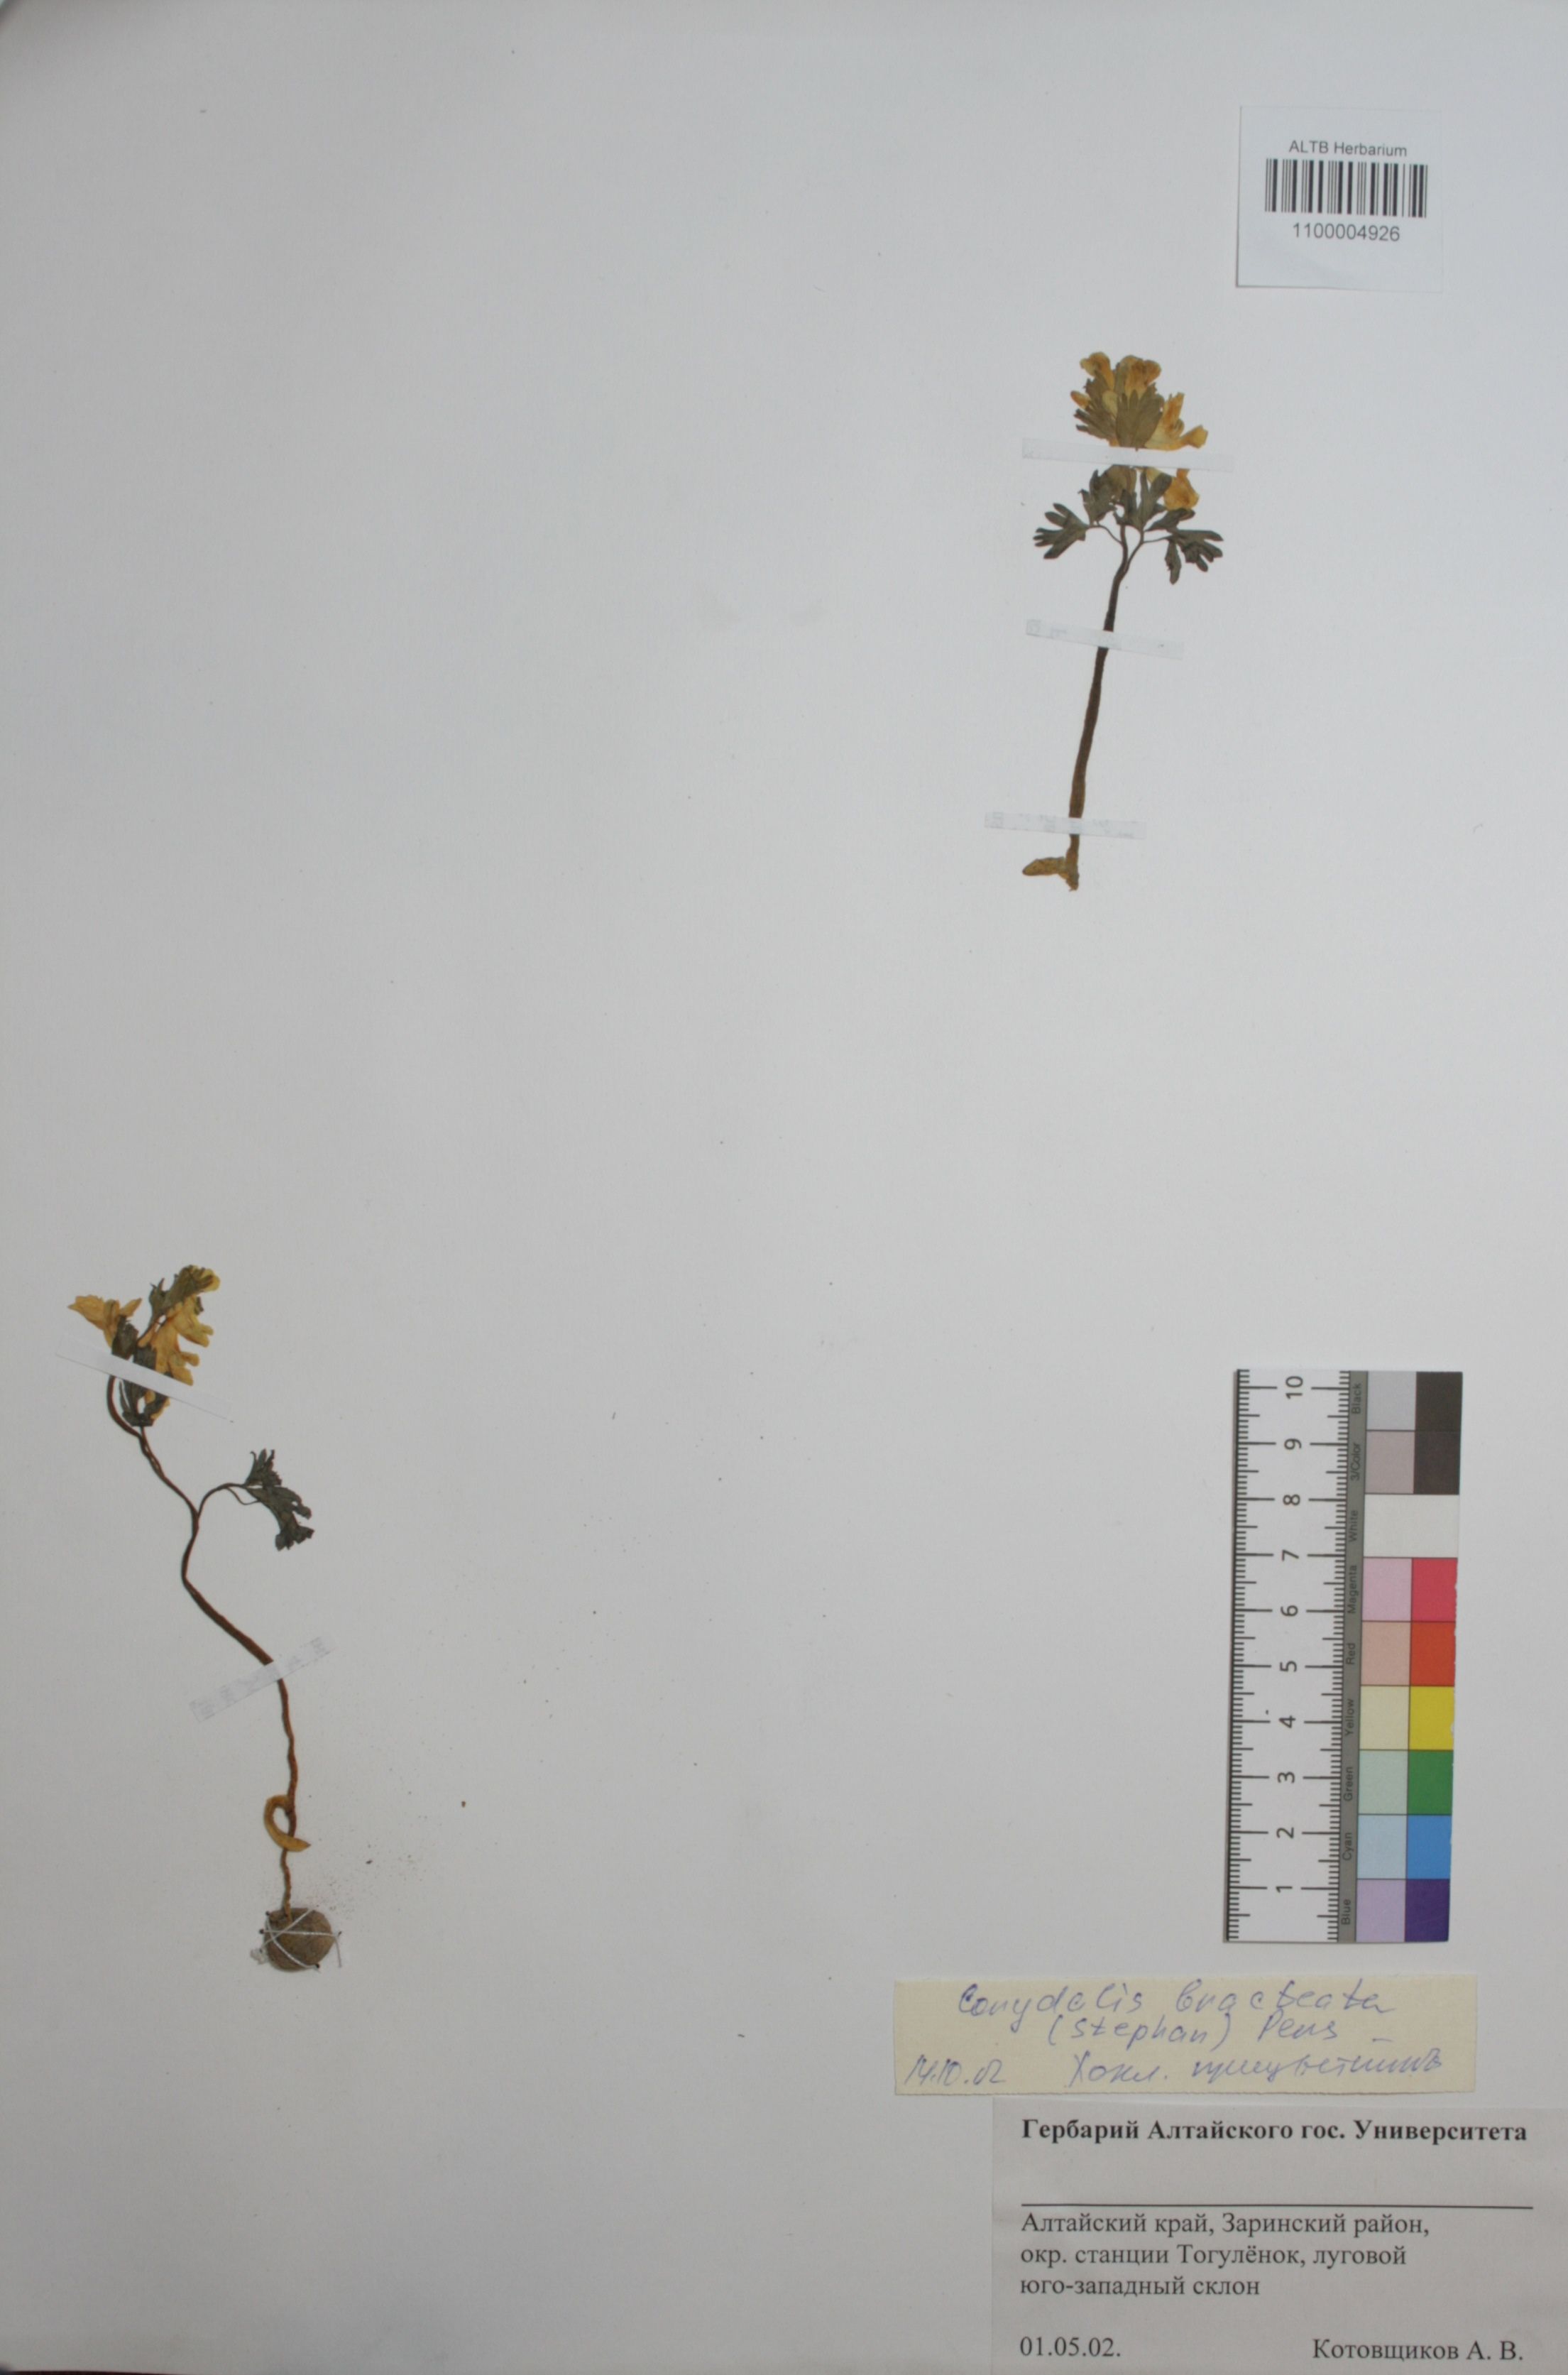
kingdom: Plantae
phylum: Tracheophyta
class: Magnoliopsida
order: Ranunculales
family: Papaveraceae
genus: Corydalis
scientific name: Corydalis bracteata
